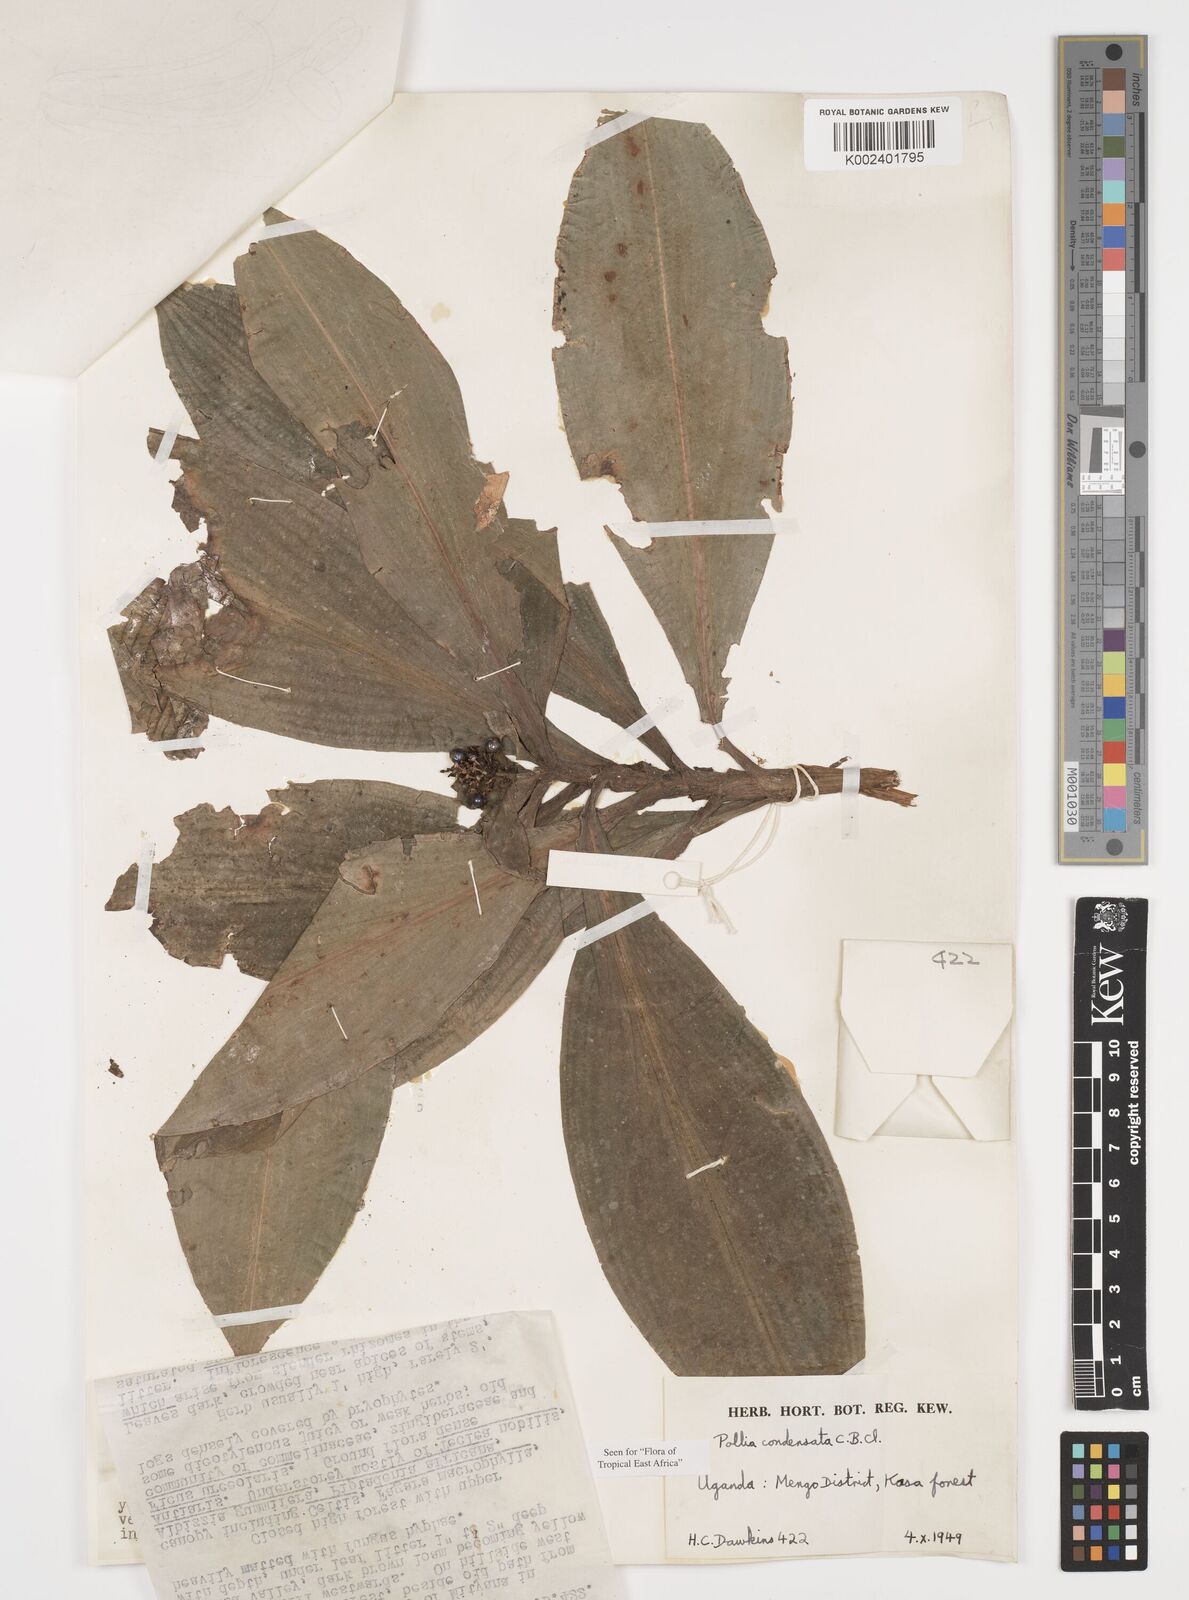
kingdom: Plantae
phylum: Tracheophyta
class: Liliopsida
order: Commelinales
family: Commelinaceae
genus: Pollia
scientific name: Pollia condensata
